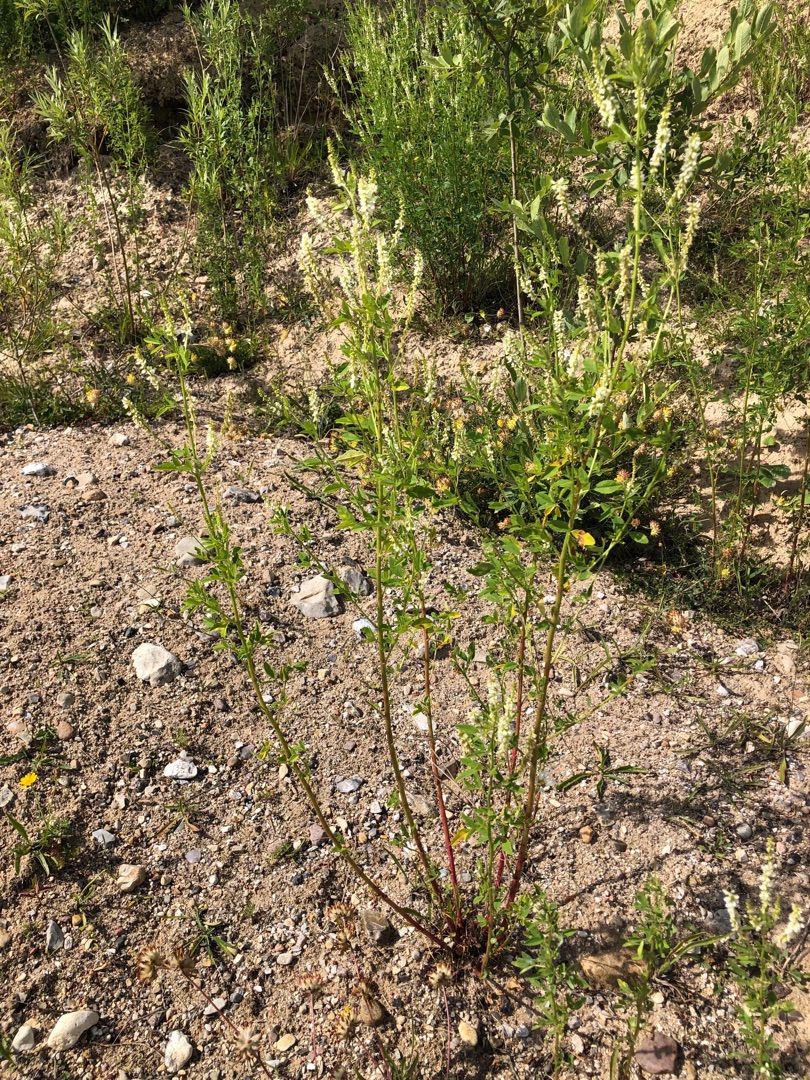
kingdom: Plantae
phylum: Tracheophyta
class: Magnoliopsida
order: Fabales
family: Fabaceae
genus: Melilotus
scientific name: Melilotus albus
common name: Hvid stenkløver
